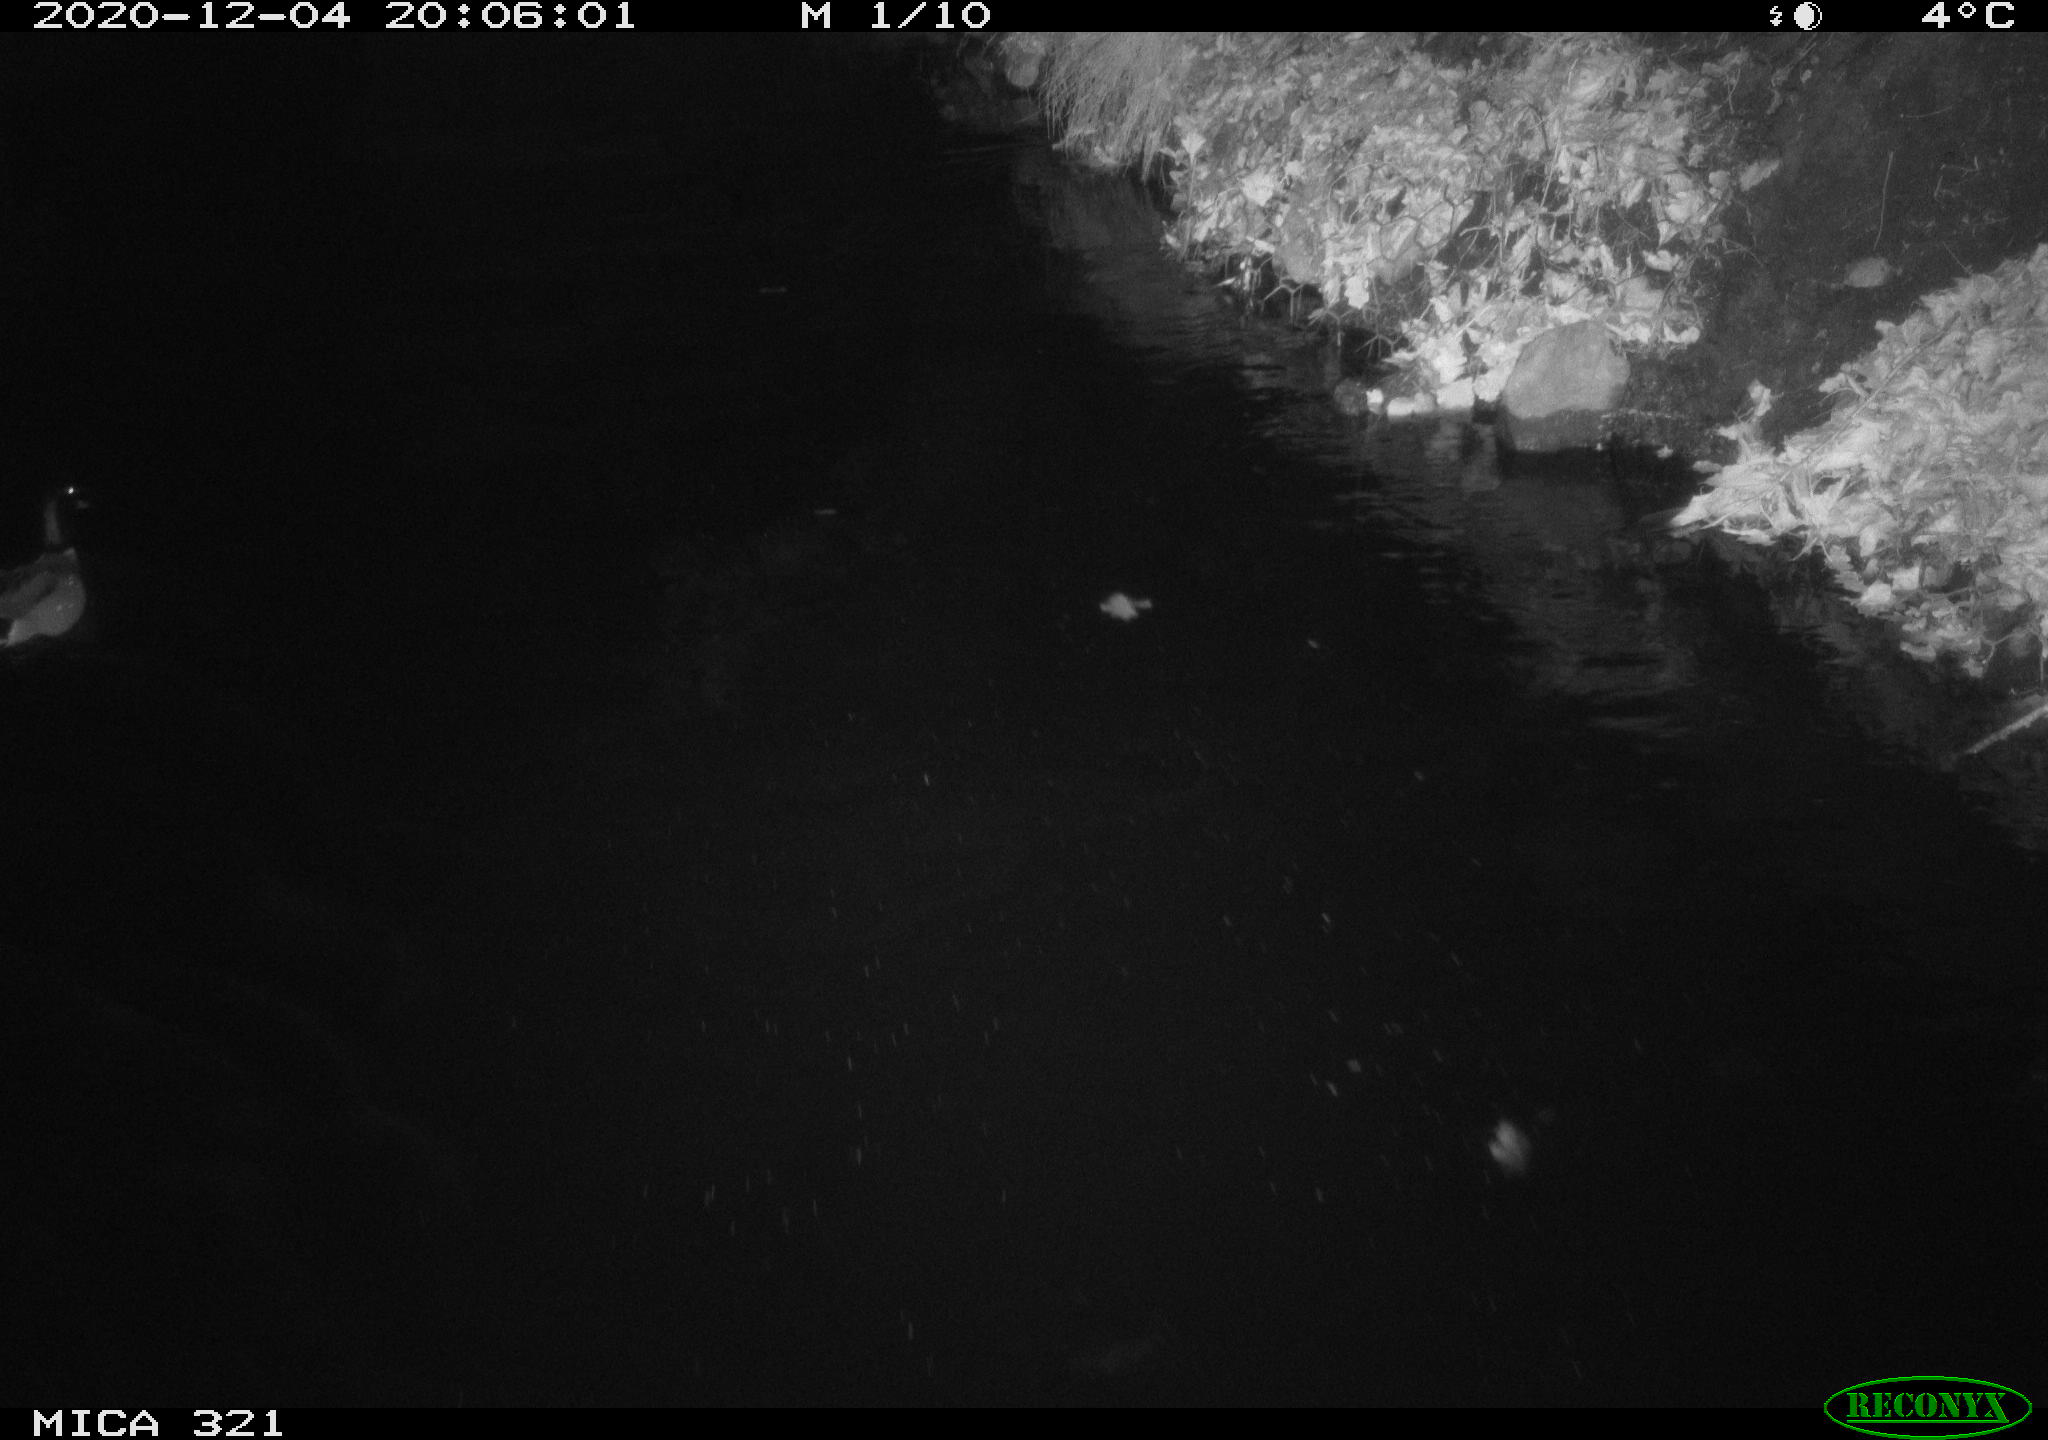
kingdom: Animalia
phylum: Chordata
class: Aves
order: Anseriformes
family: Anatidae
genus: Anas
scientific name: Anas platyrhynchos
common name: Mallard
